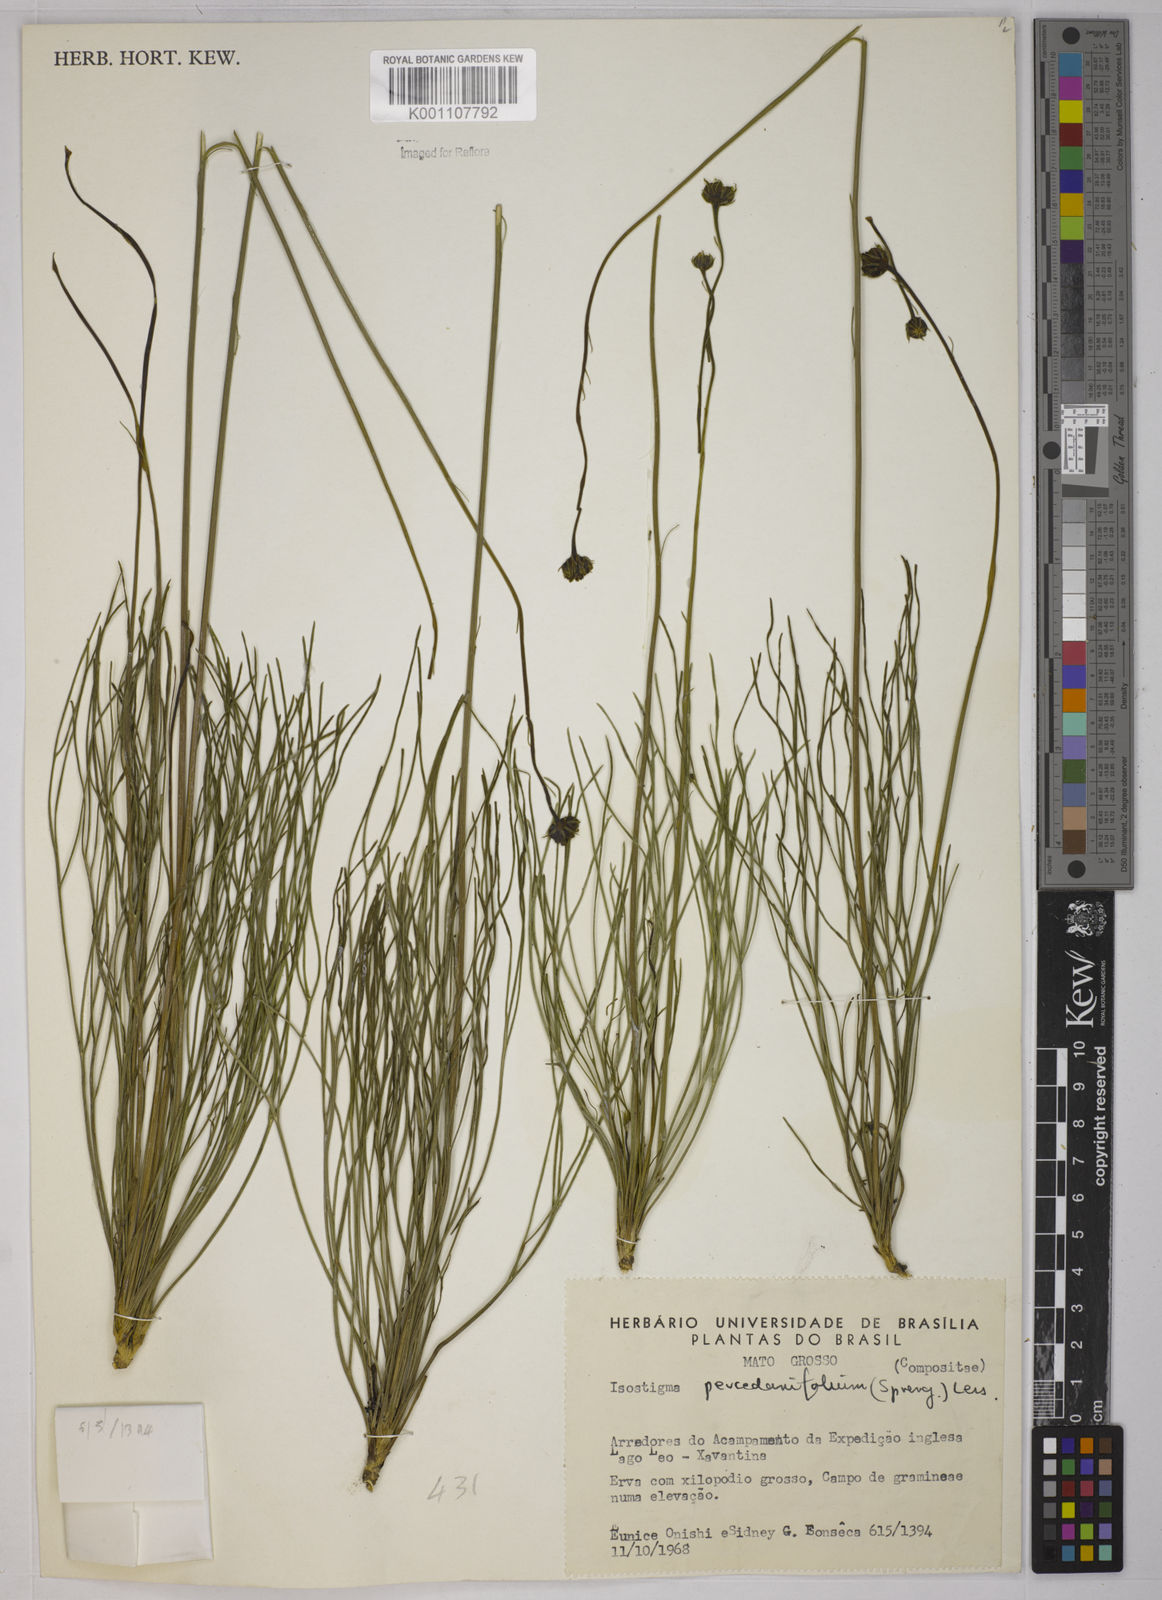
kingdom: Plantae
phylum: Tracheophyta
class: Magnoliopsida
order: Asterales
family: Asteraceae
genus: Isostigma
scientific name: Isostigma
